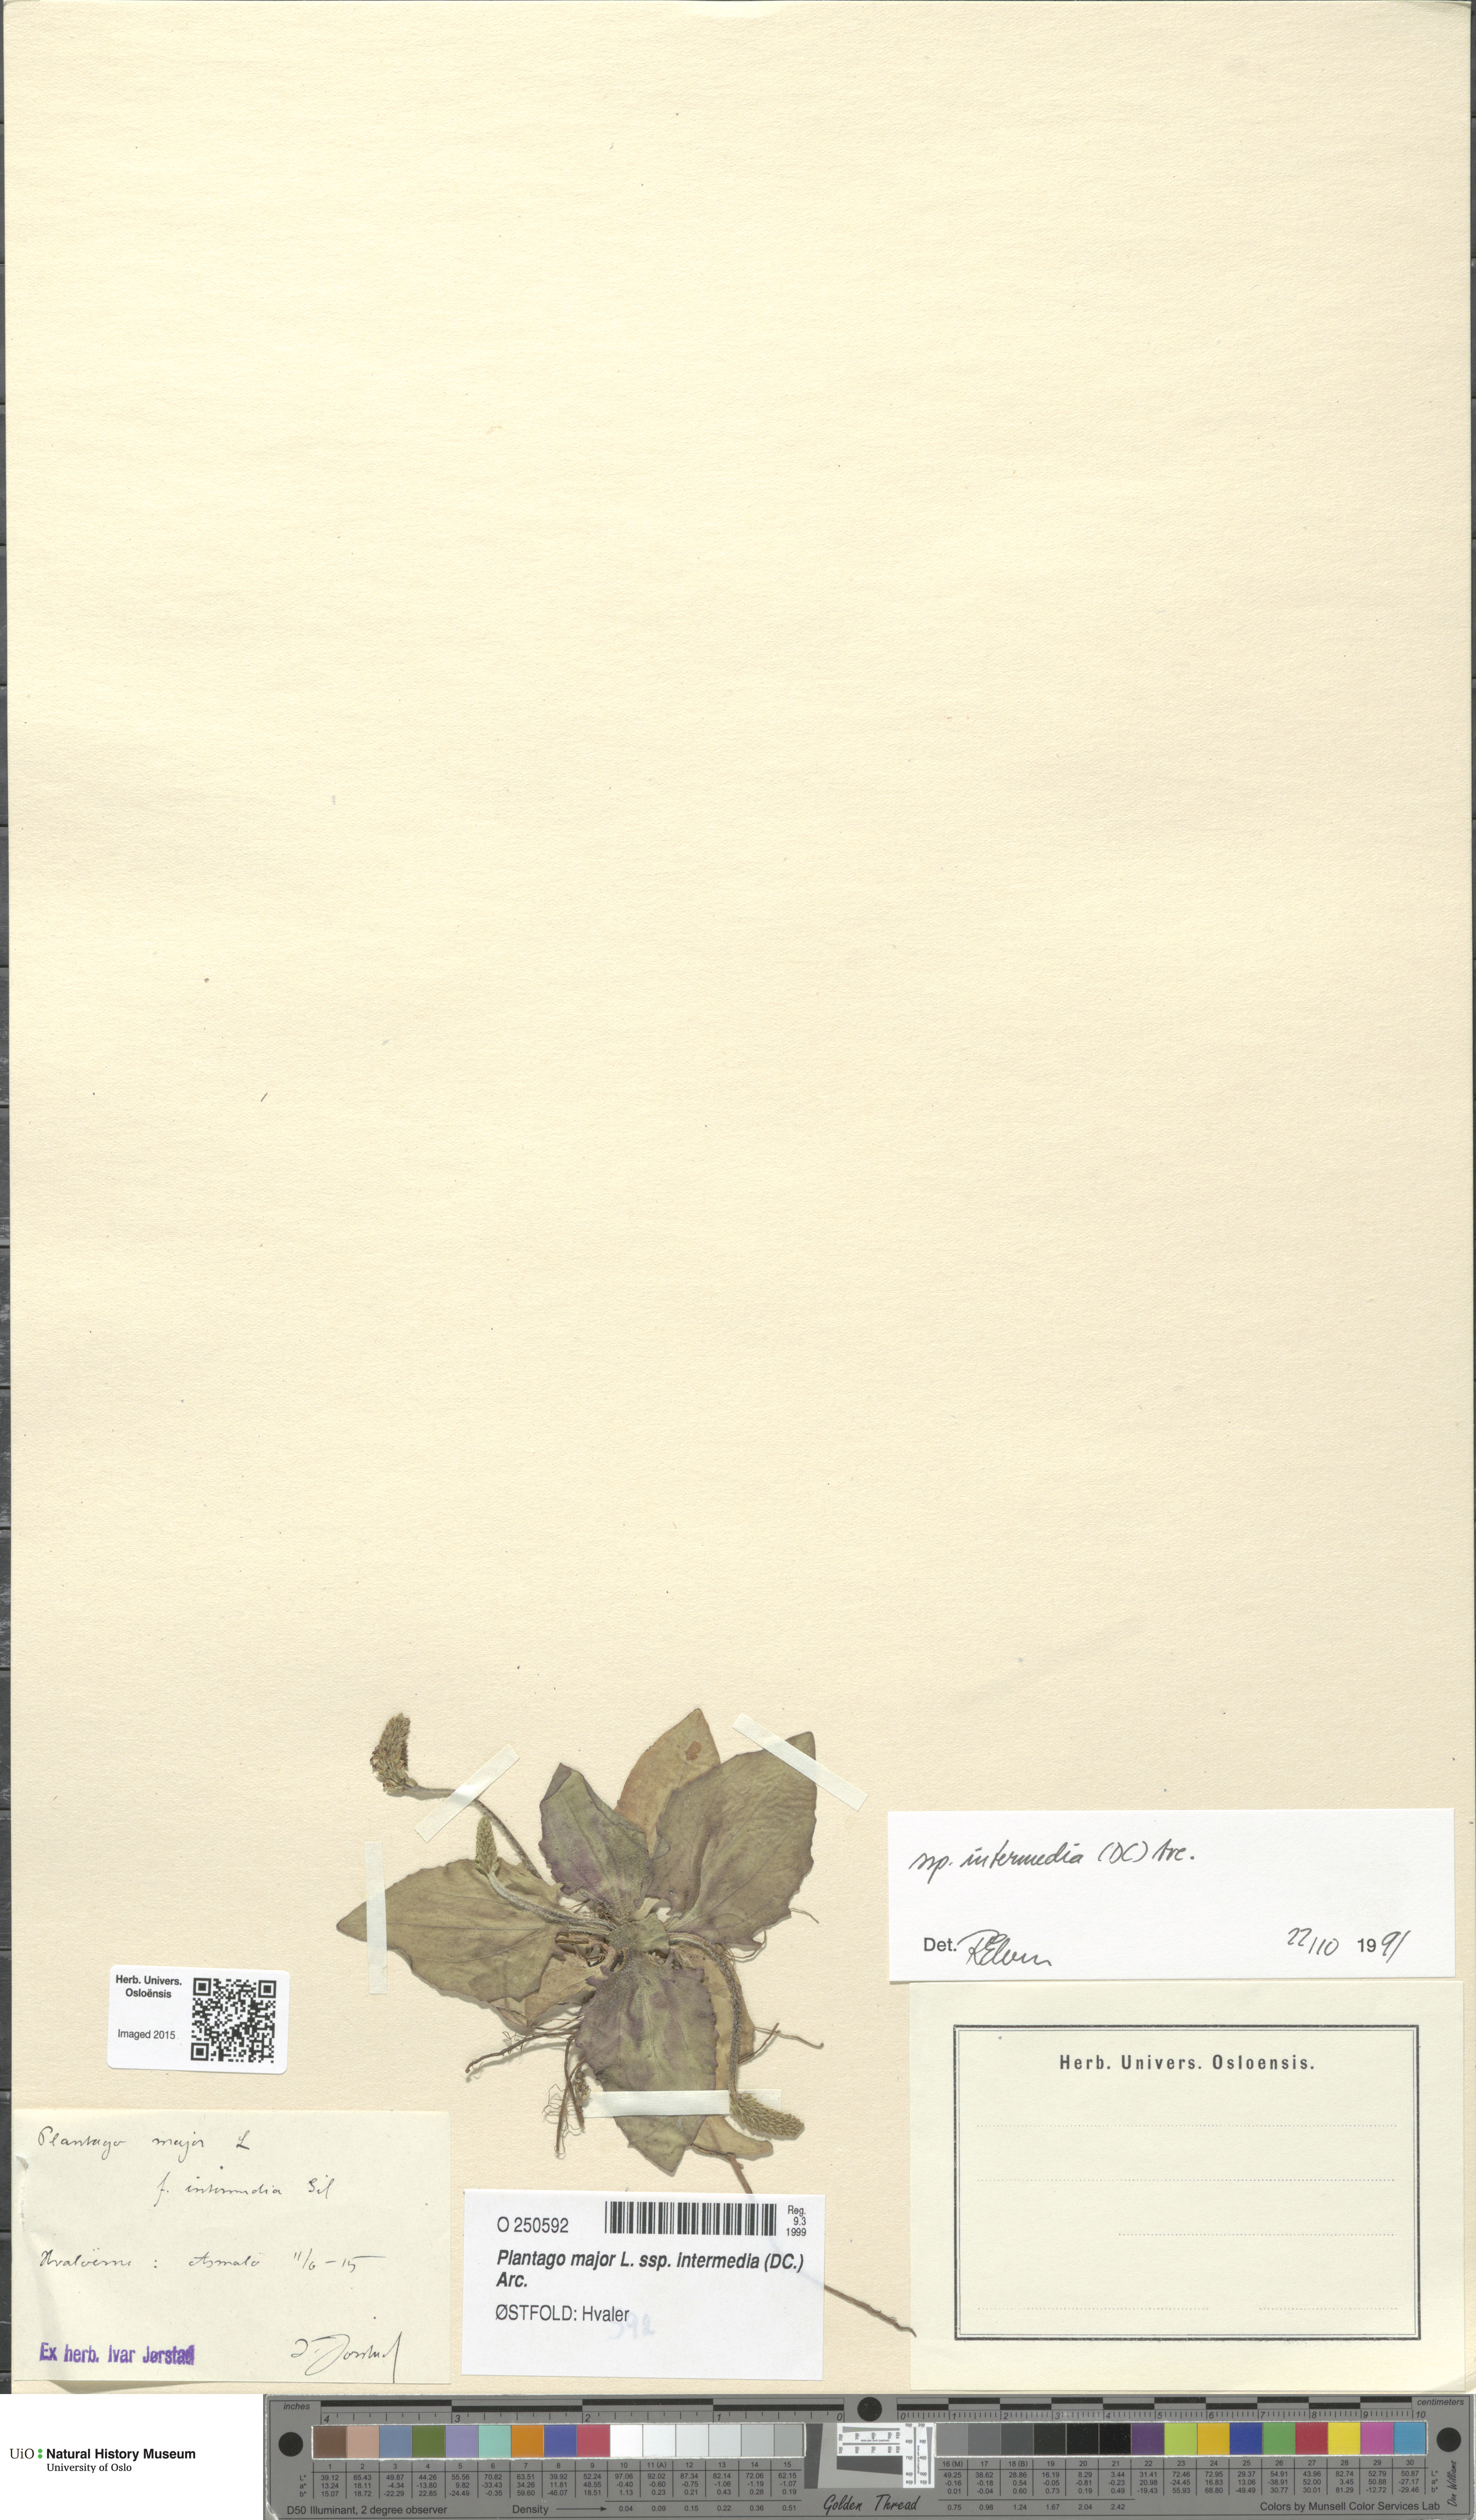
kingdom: Plantae
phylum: Tracheophyta
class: Magnoliopsida
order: Lamiales
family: Plantaginaceae
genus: Plantago
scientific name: Plantago uliginosa
